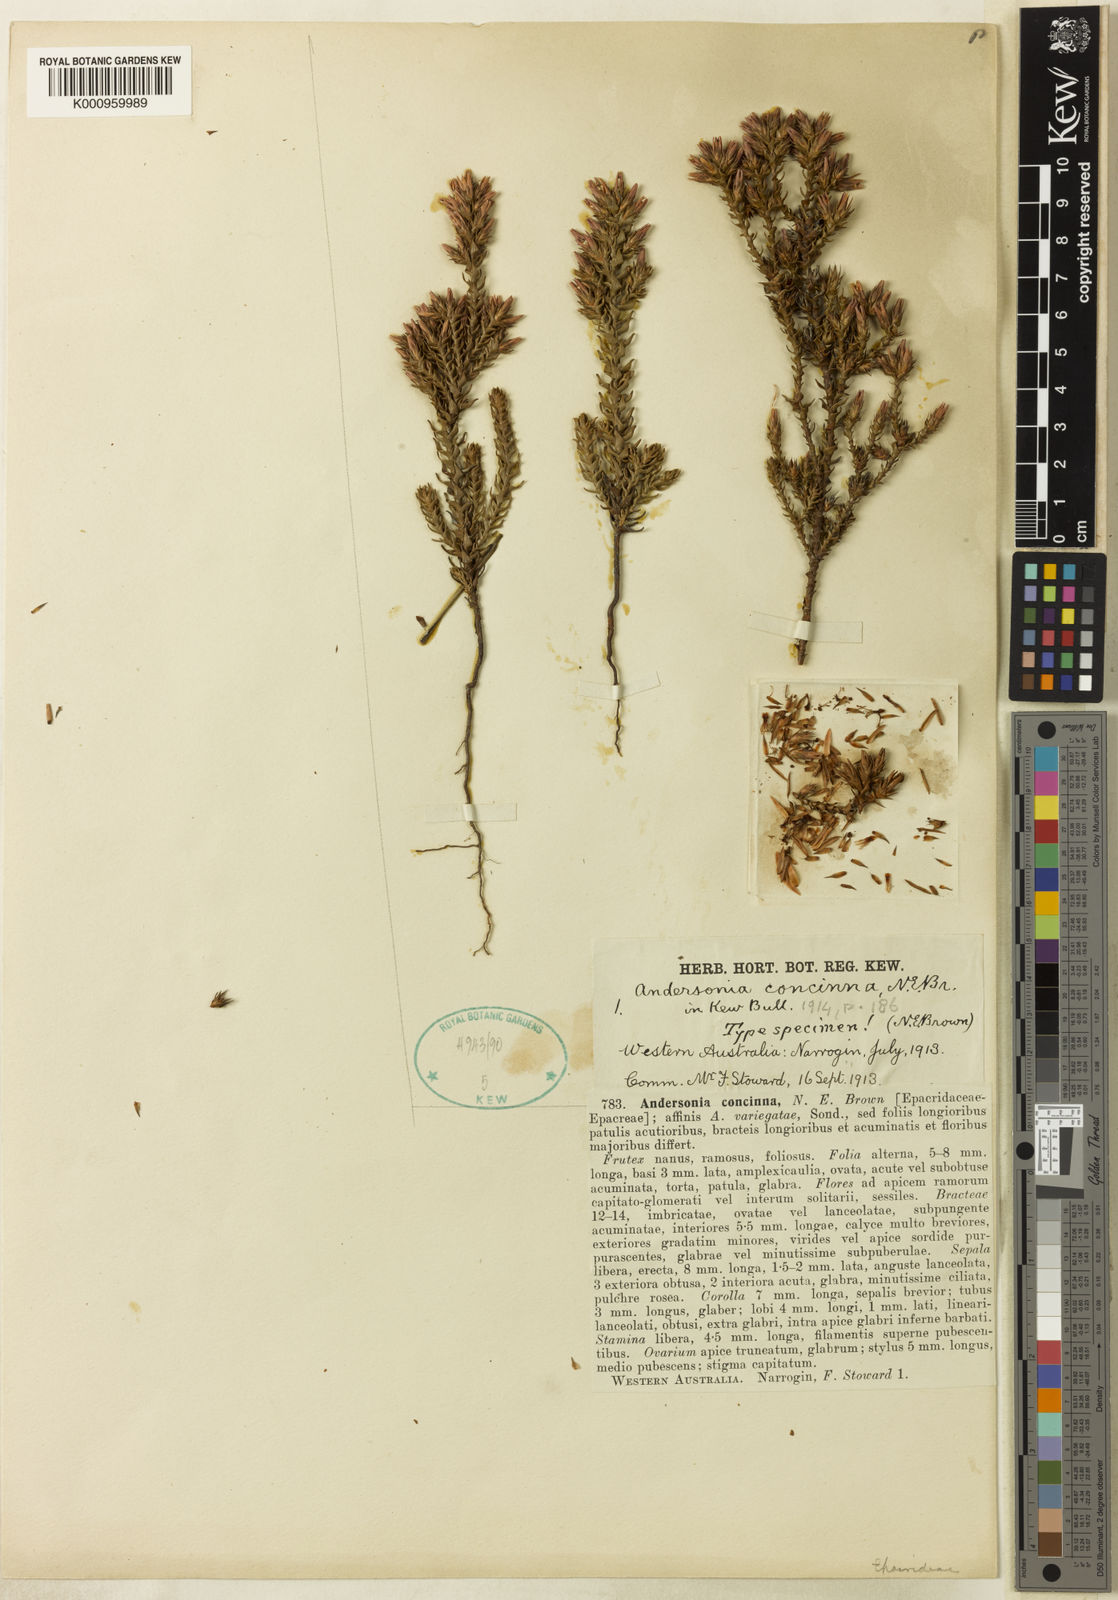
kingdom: Plantae
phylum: Tracheophyta
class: Magnoliopsida
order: Ericales
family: Ericaceae
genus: Andersonia
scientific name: Andersonia caerulea
